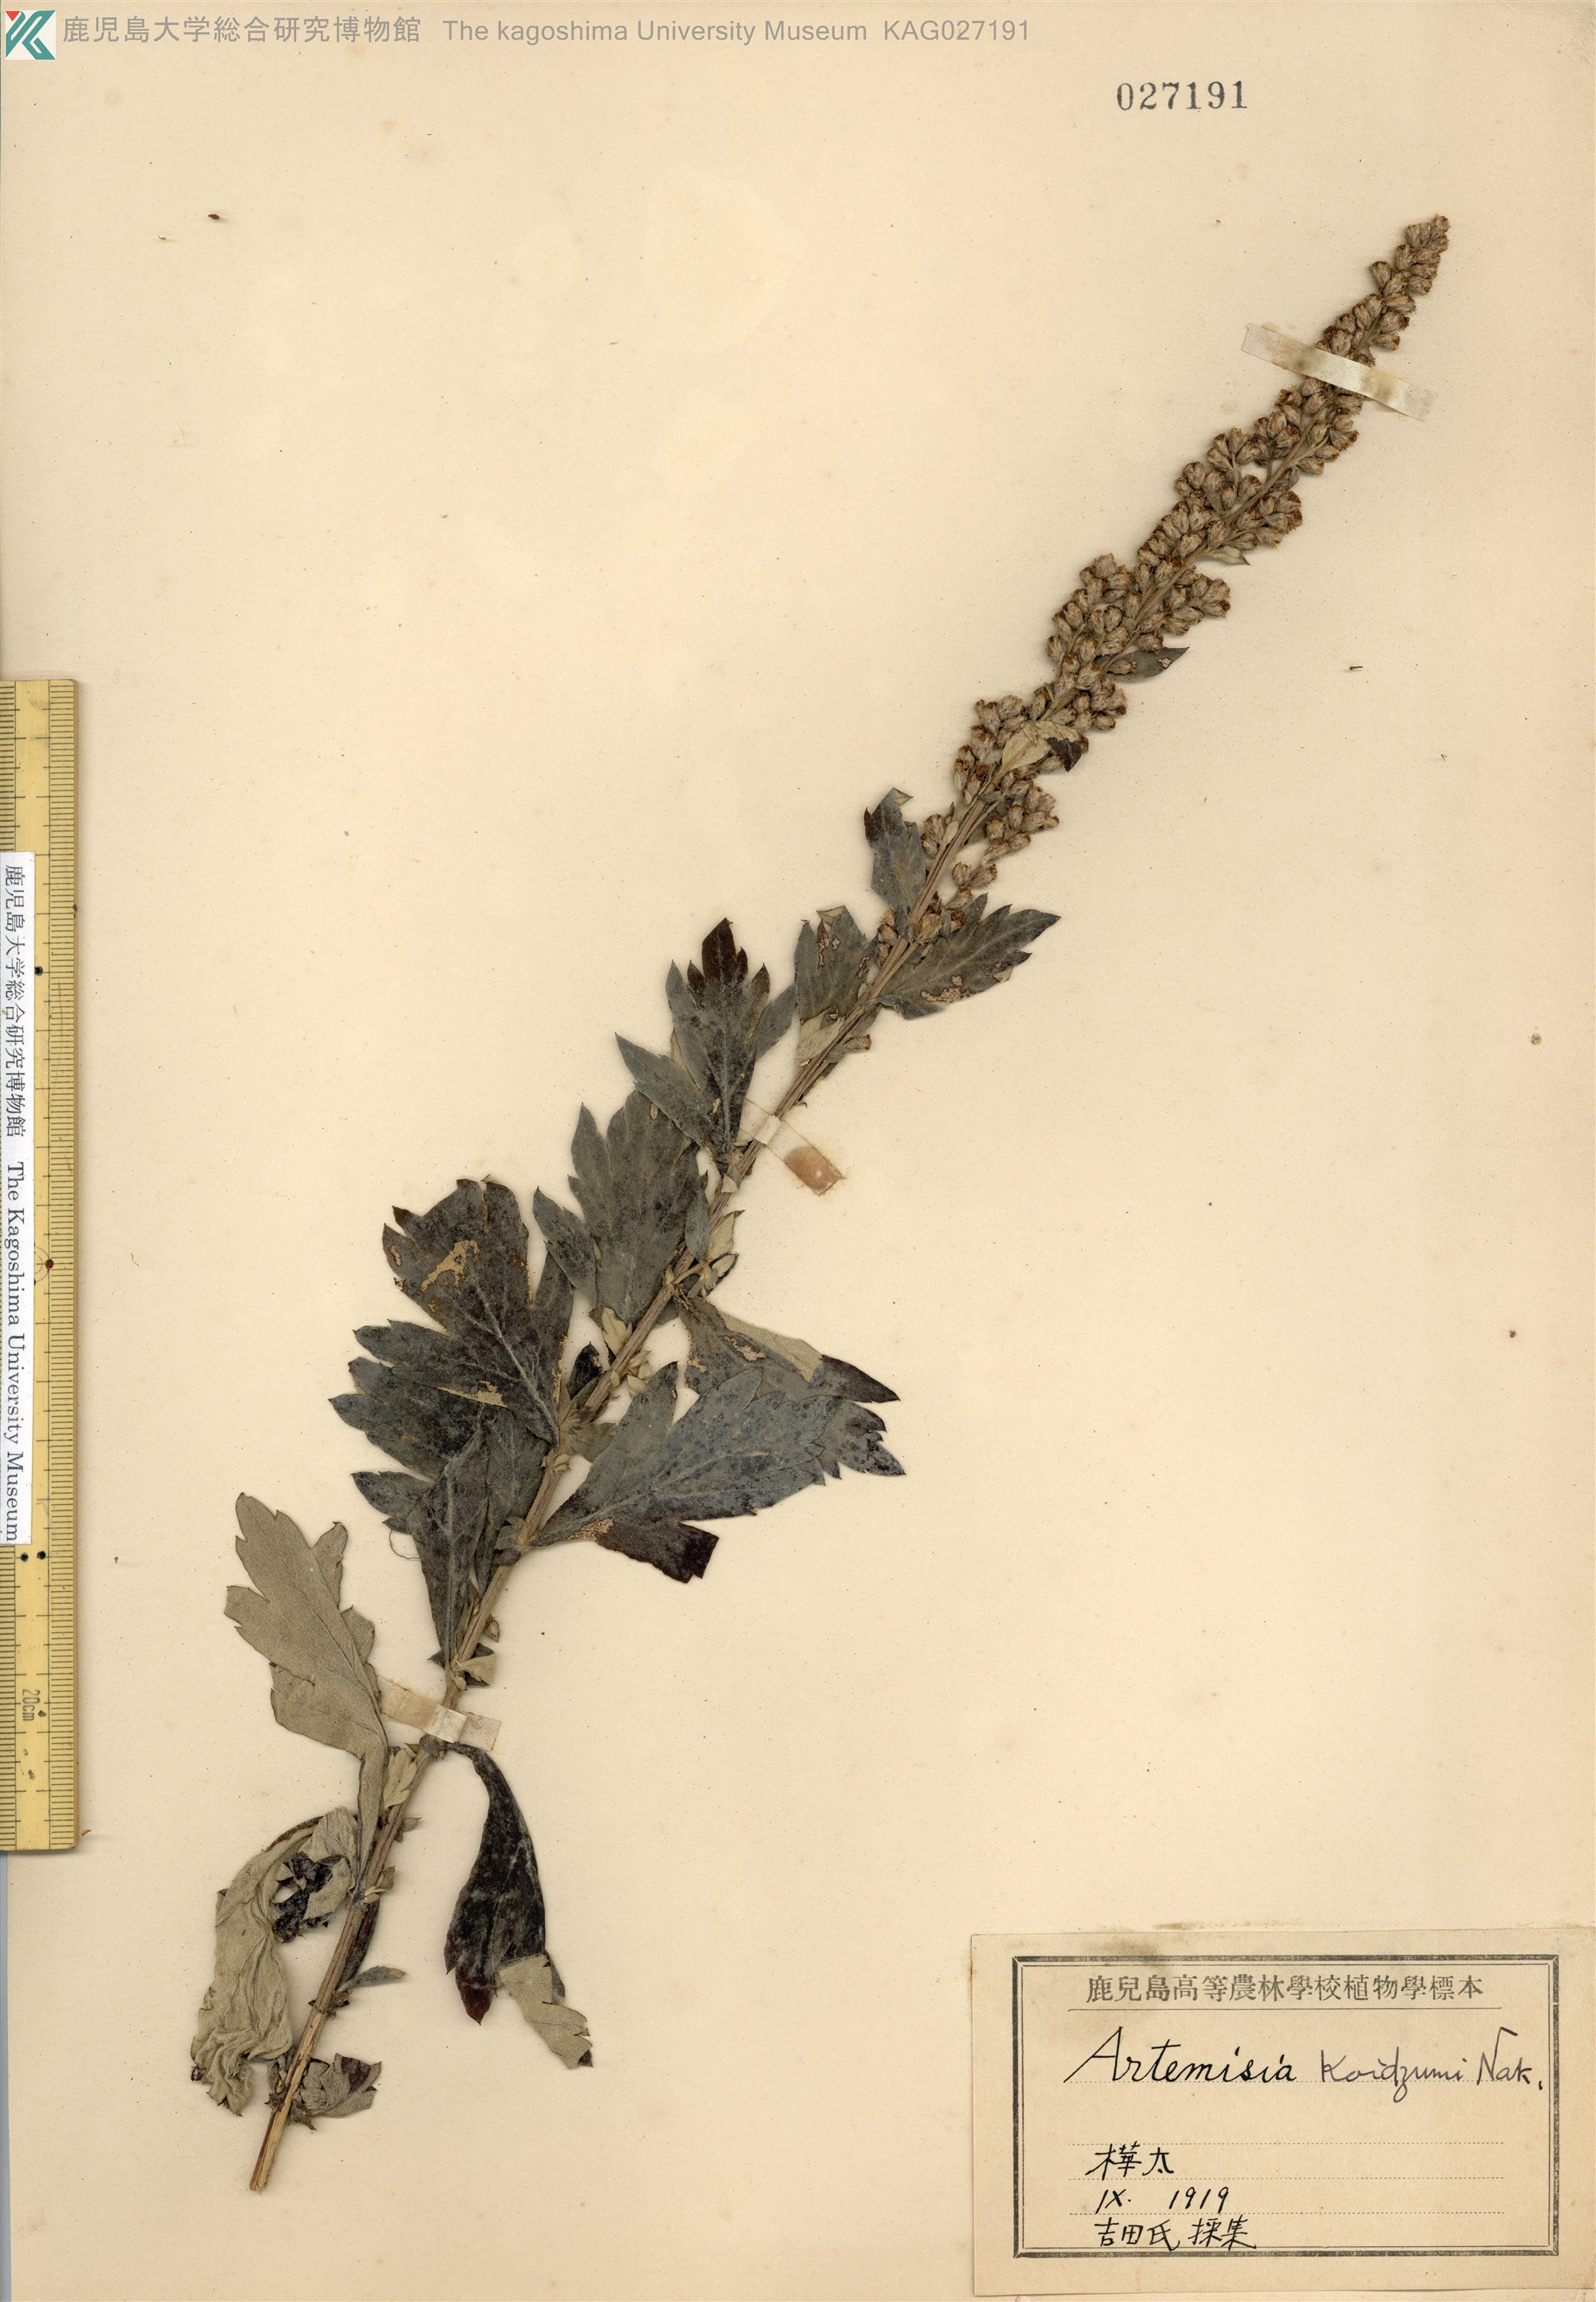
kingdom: Plantae
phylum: Tracheophyta
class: Magnoliopsida
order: Asterales
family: Asteraceae
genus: Artemisia
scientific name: Artemisia koidzumii
